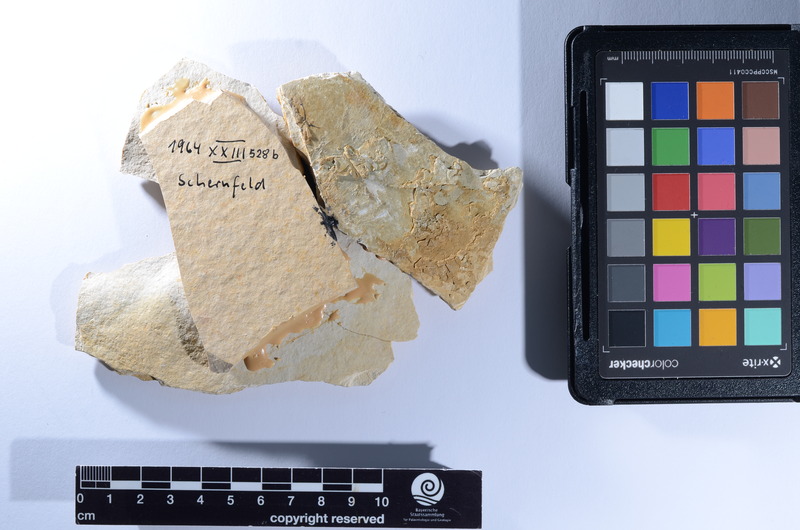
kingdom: Animalia
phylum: Chordata
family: Aspidorhynchidae
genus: Aspidorhynchus
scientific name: Aspidorhynchus acutirostris
